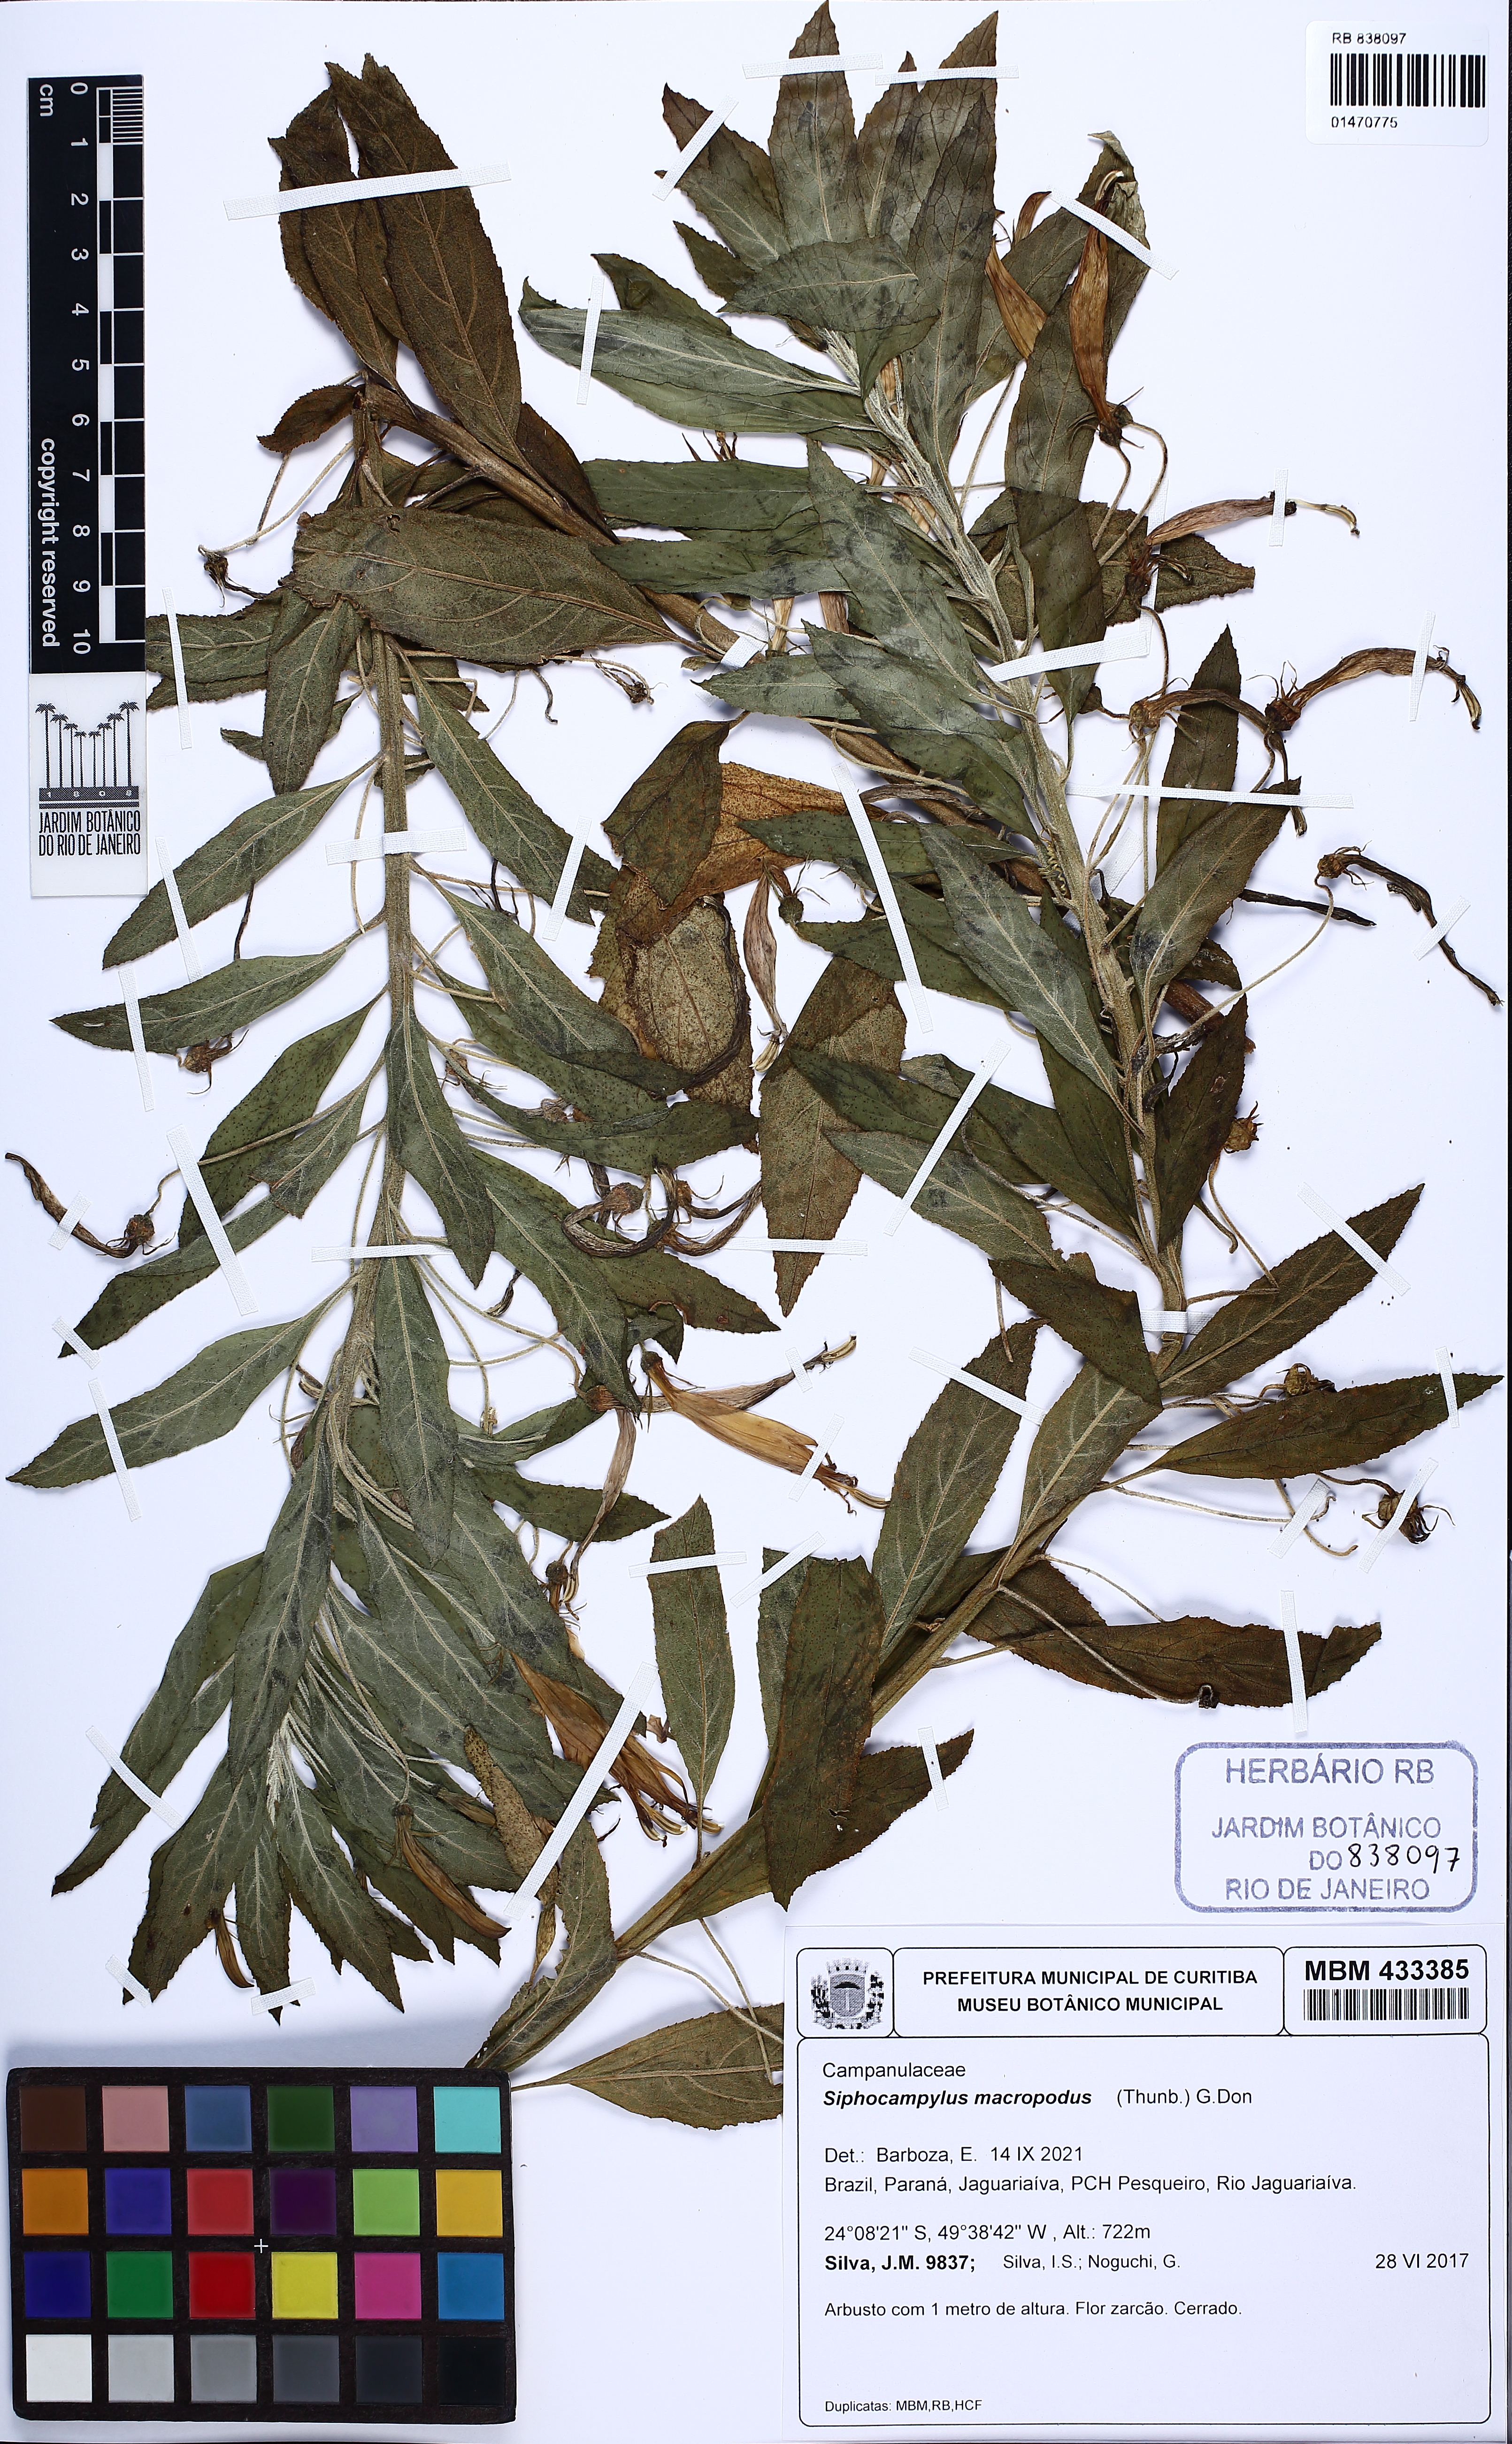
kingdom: Plantae
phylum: Tracheophyta
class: Magnoliopsida
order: Asterales
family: Campanulaceae
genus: Siphocampylus
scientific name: Siphocampylus macropodus
